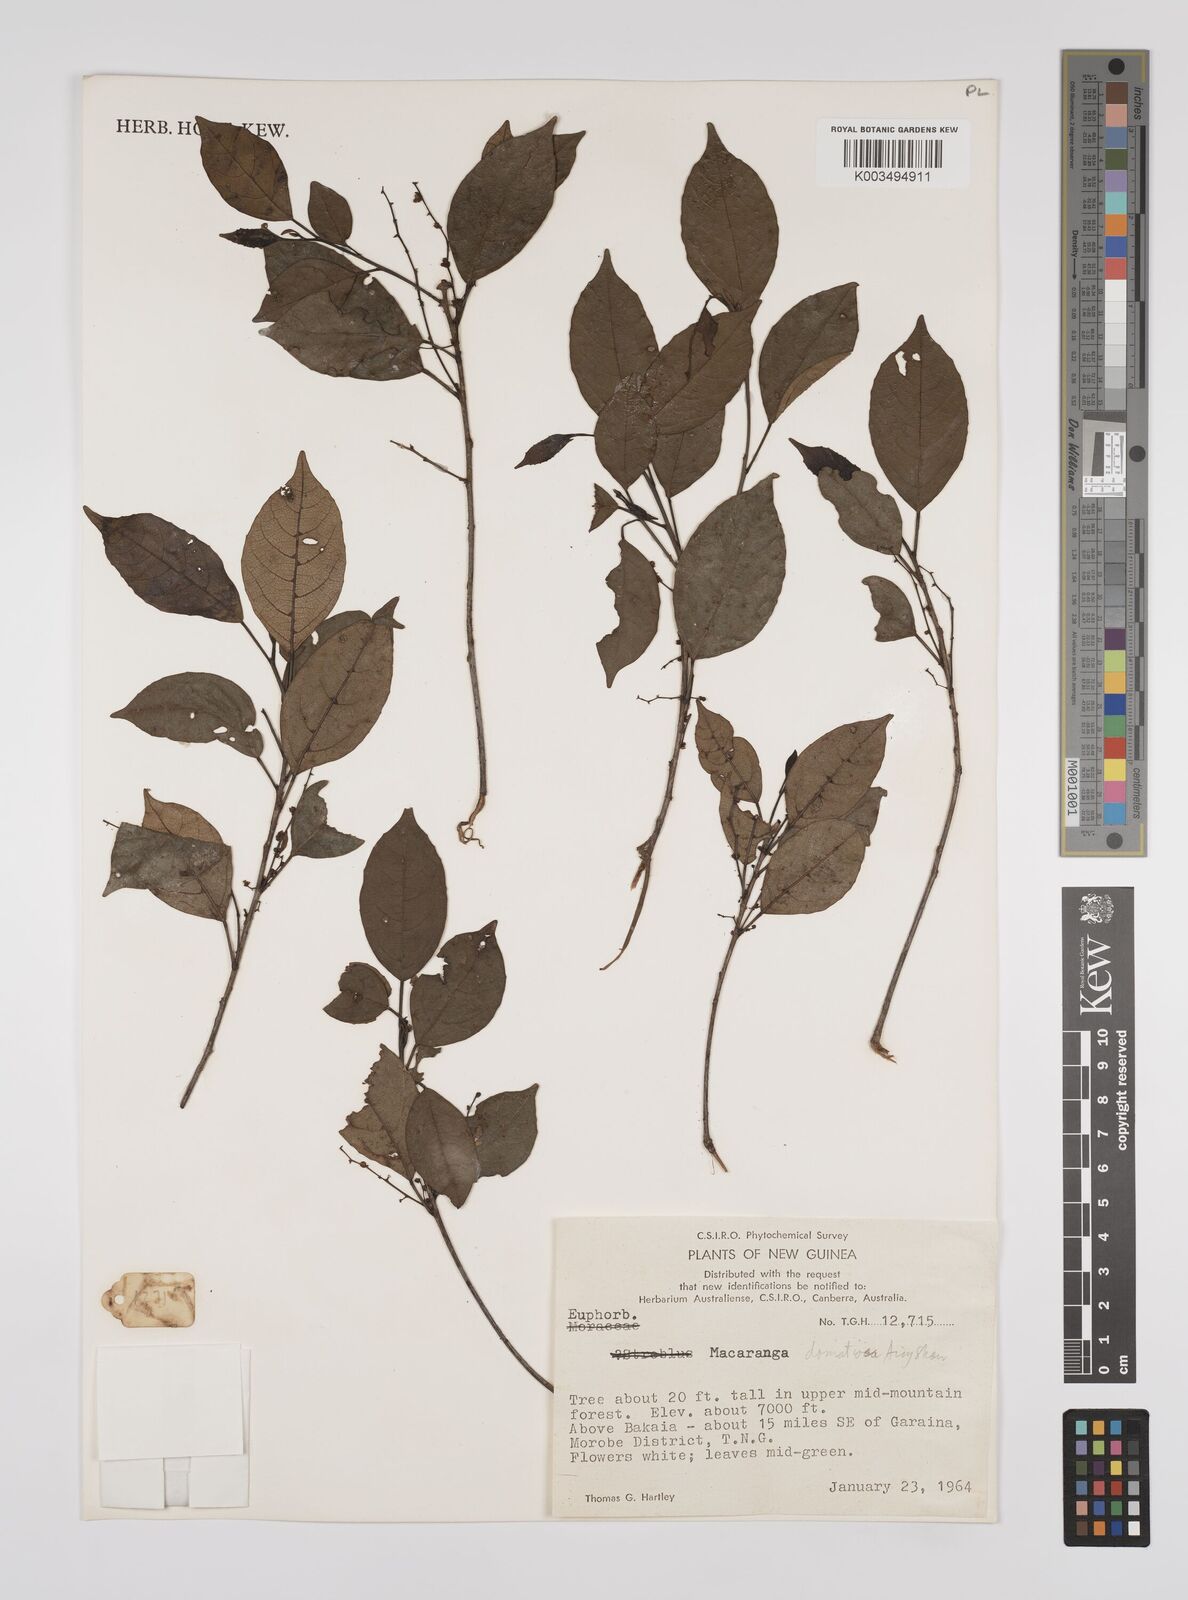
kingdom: Plantae
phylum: Tracheophyta
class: Magnoliopsida
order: Malpighiales
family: Euphorbiaceae
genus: Macaranga
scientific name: Macaranga domatiosa
